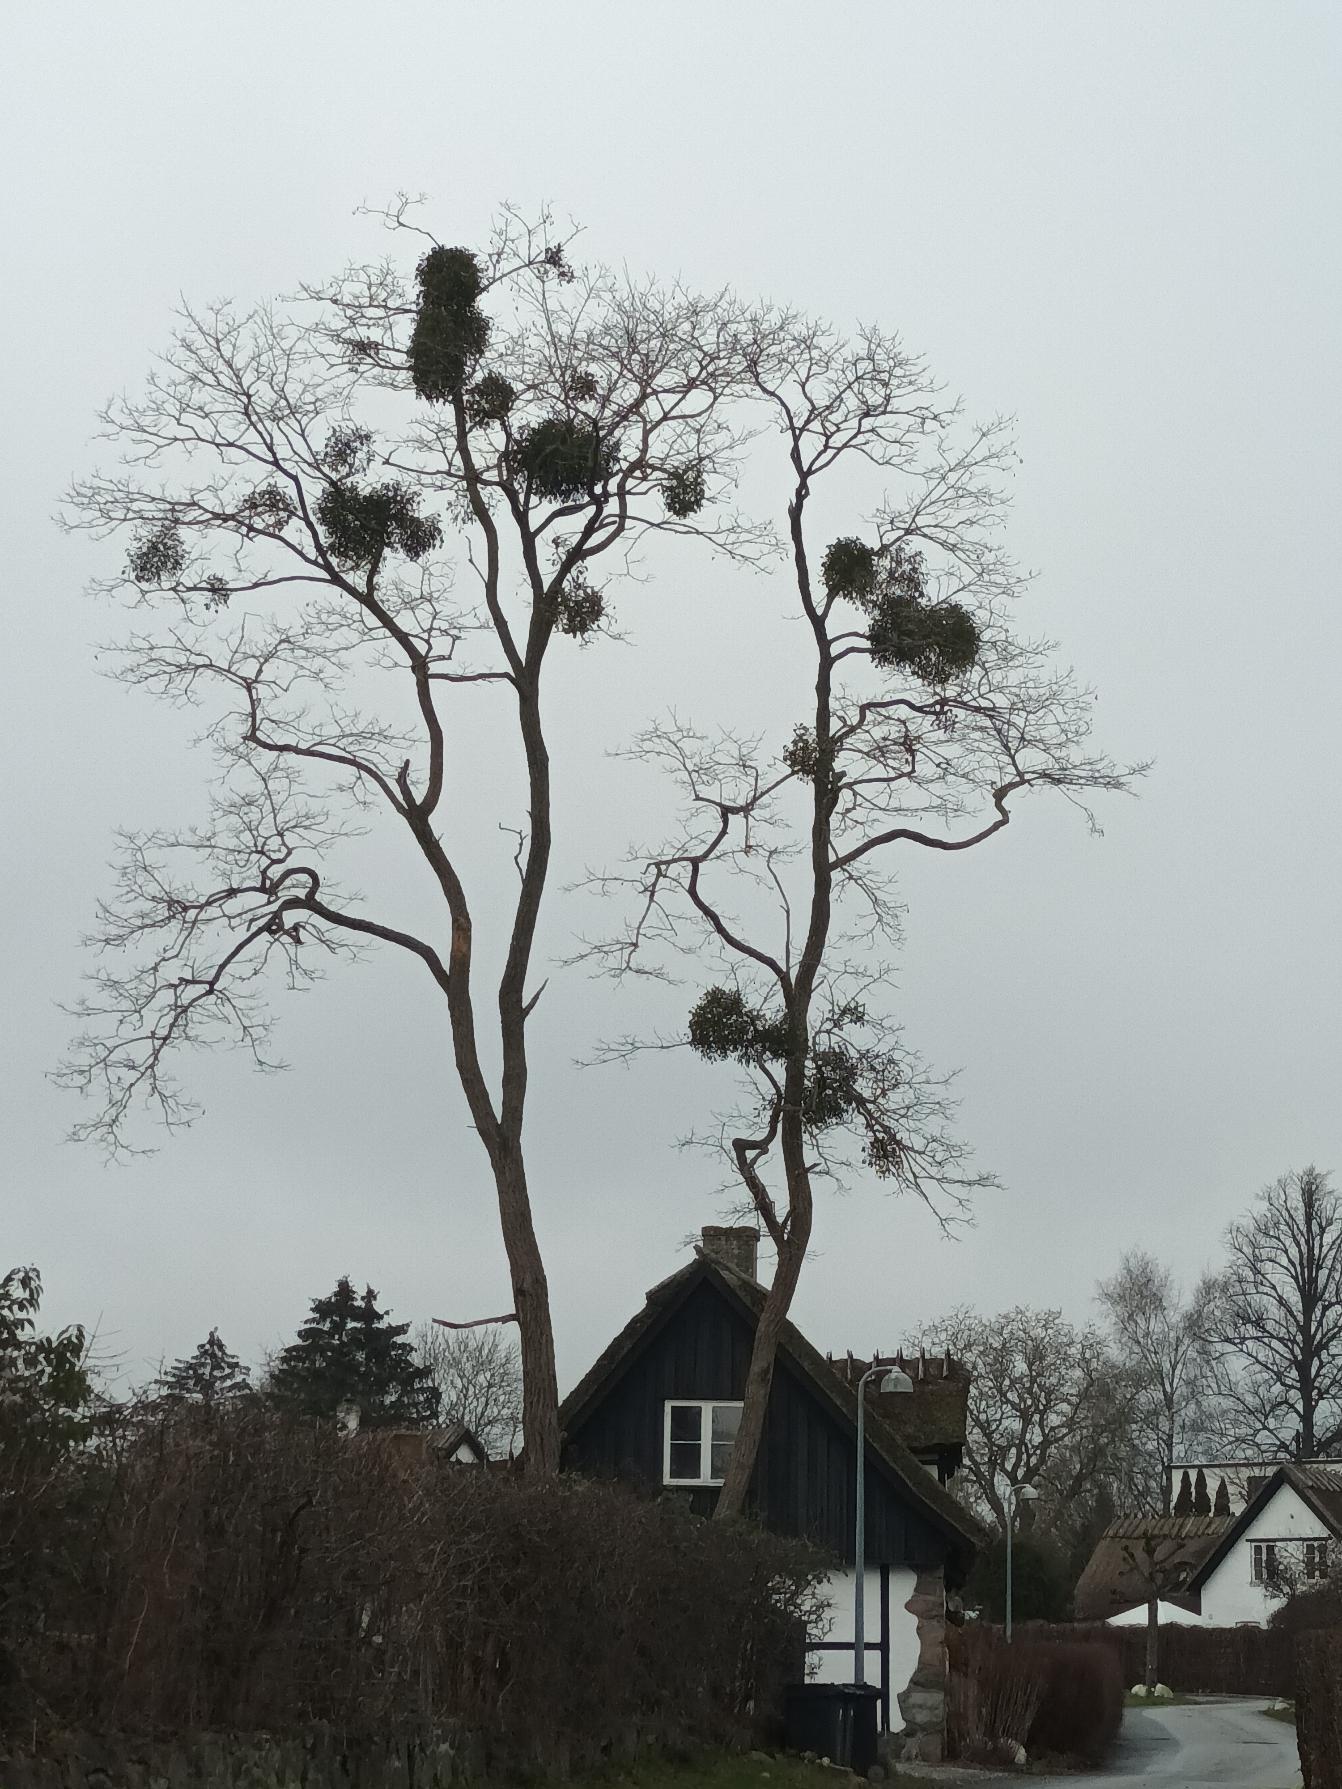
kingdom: Plantae
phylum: Tracheophyta
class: Magnoliopsida
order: Santalales
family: Viscaceae
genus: Viscum
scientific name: Viscum album
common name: Mistelten
